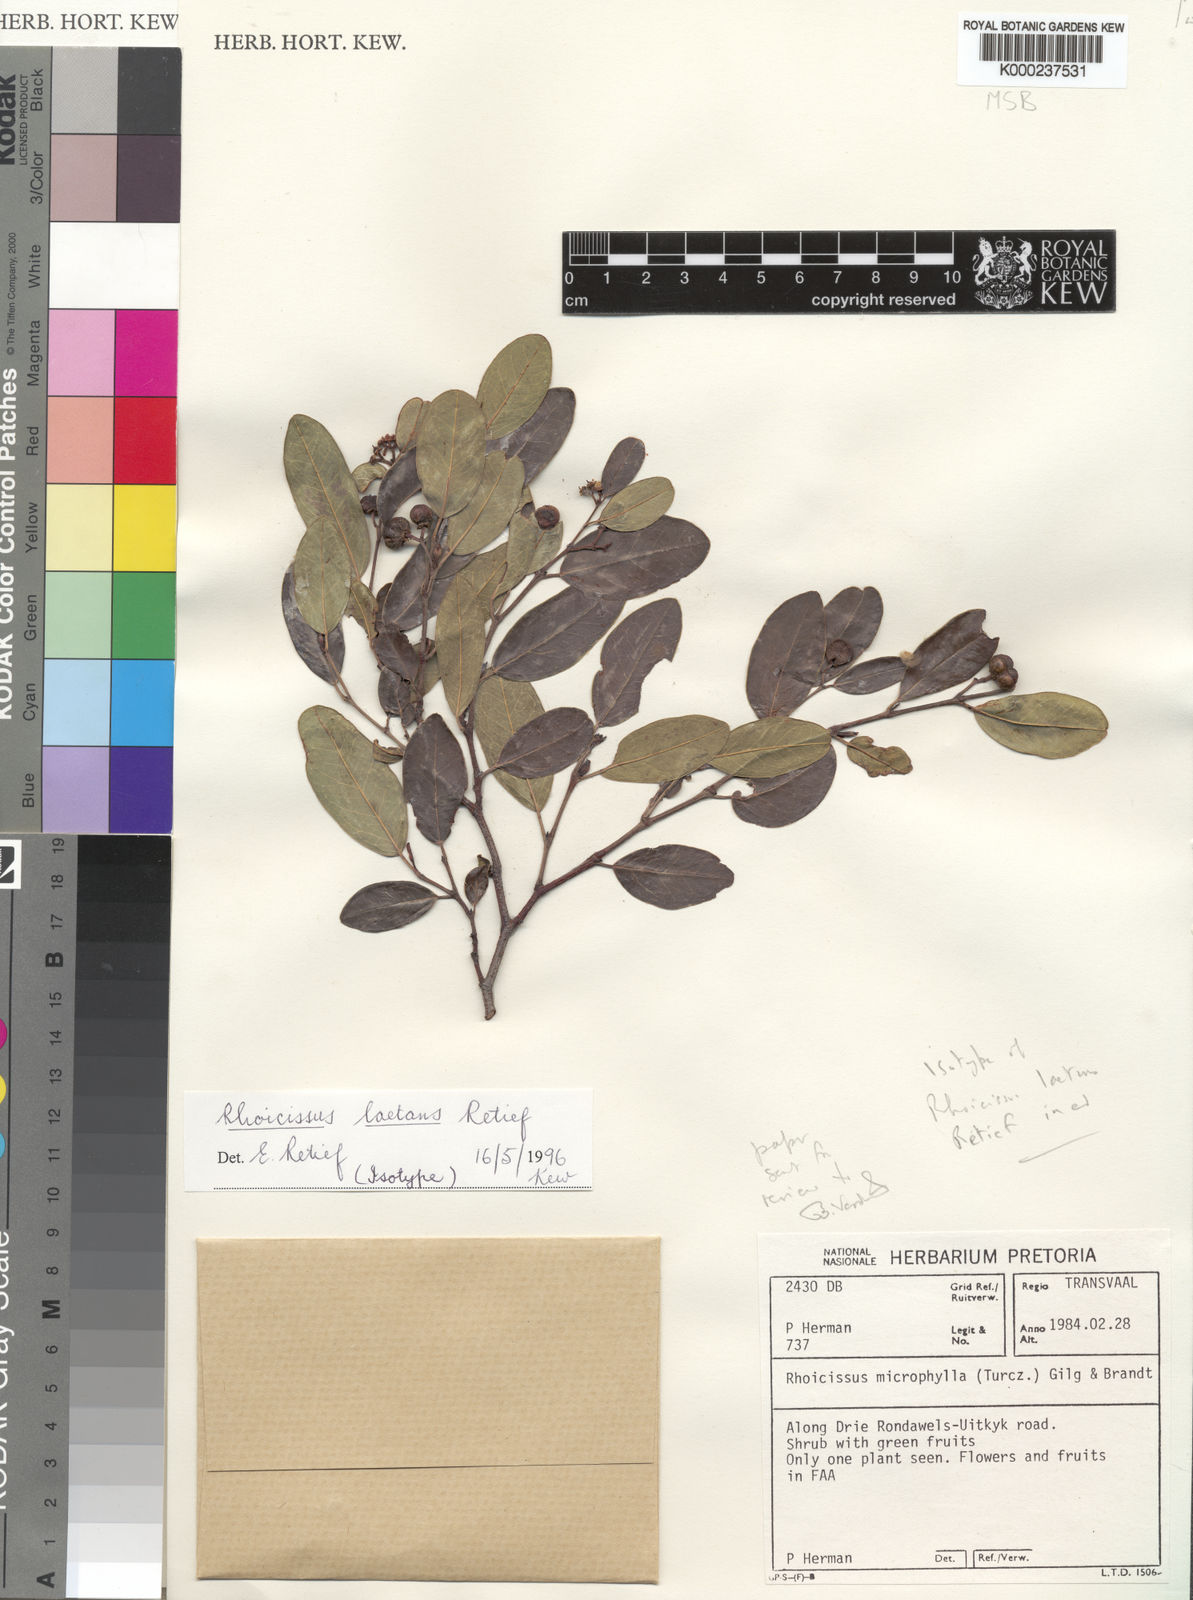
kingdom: Plantae
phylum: Tracheophyta
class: Magnoliopsida
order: Vitales
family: Vitaceae
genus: Rhoicissus
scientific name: Rhoicissus laetans
